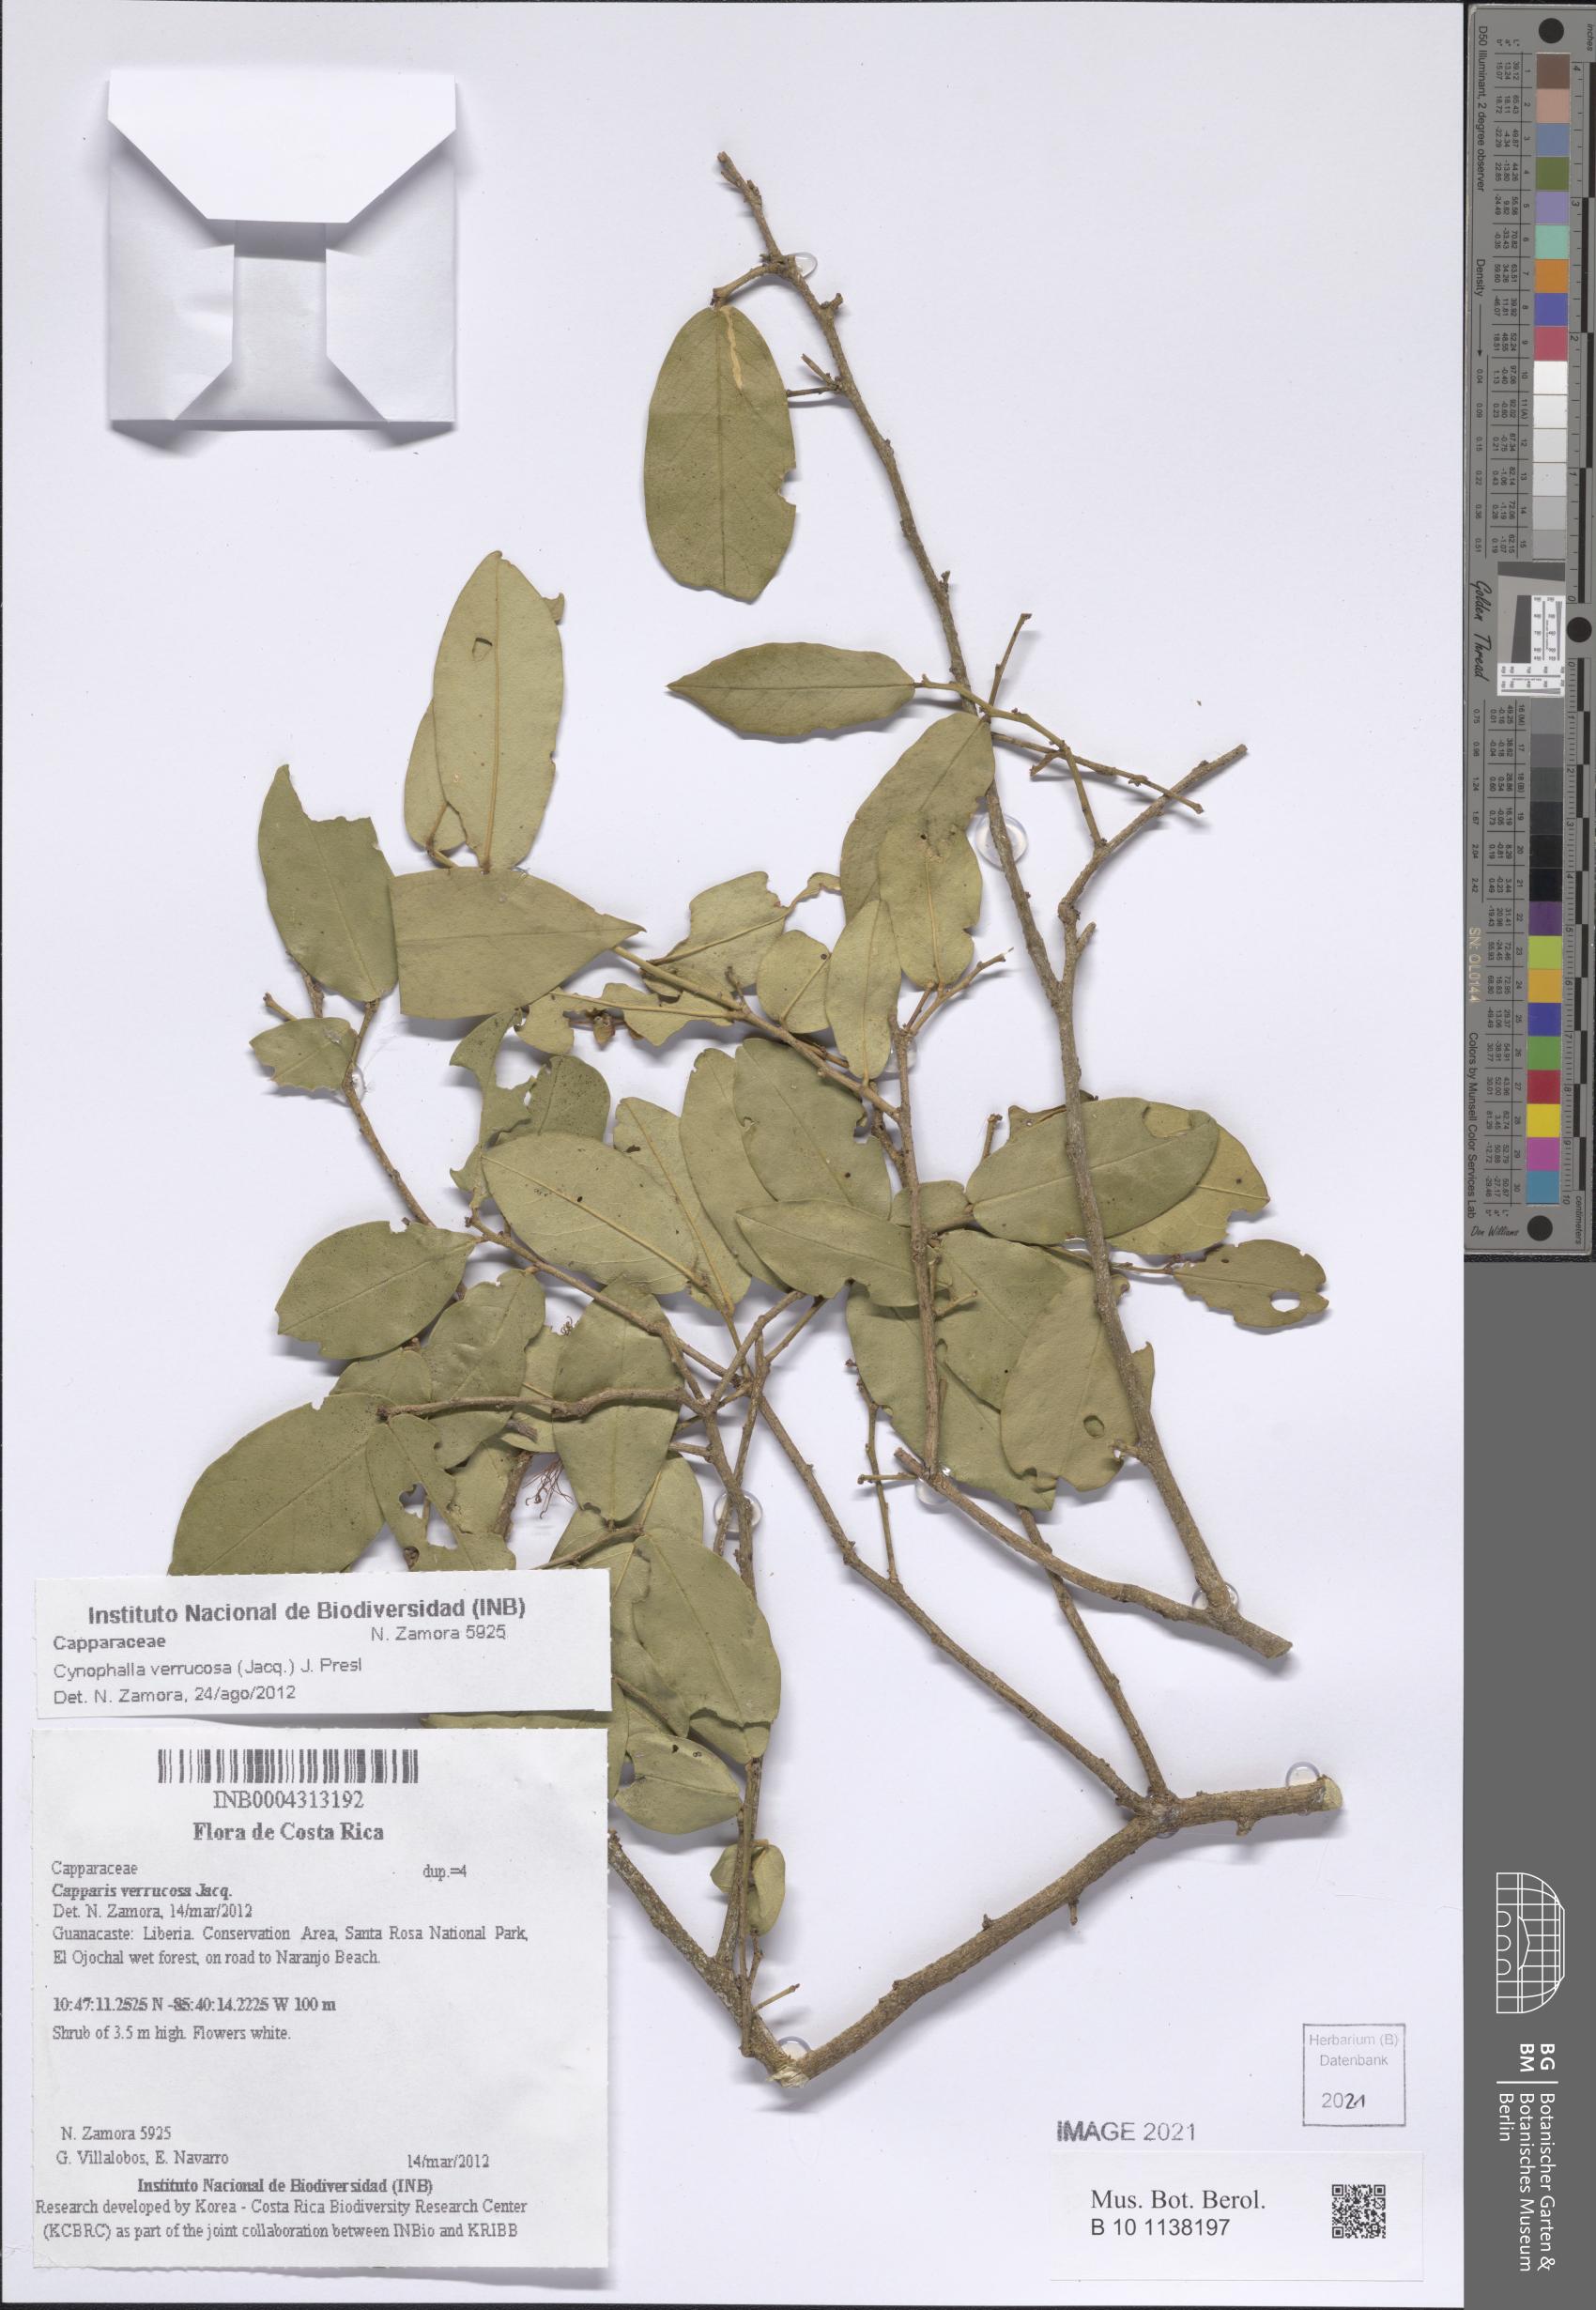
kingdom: Plantae
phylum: Tracheophyta
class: Magnoliopsida
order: Brassicales
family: Capparaceae
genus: Cynophalla
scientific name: Cynophalla verrucosa
